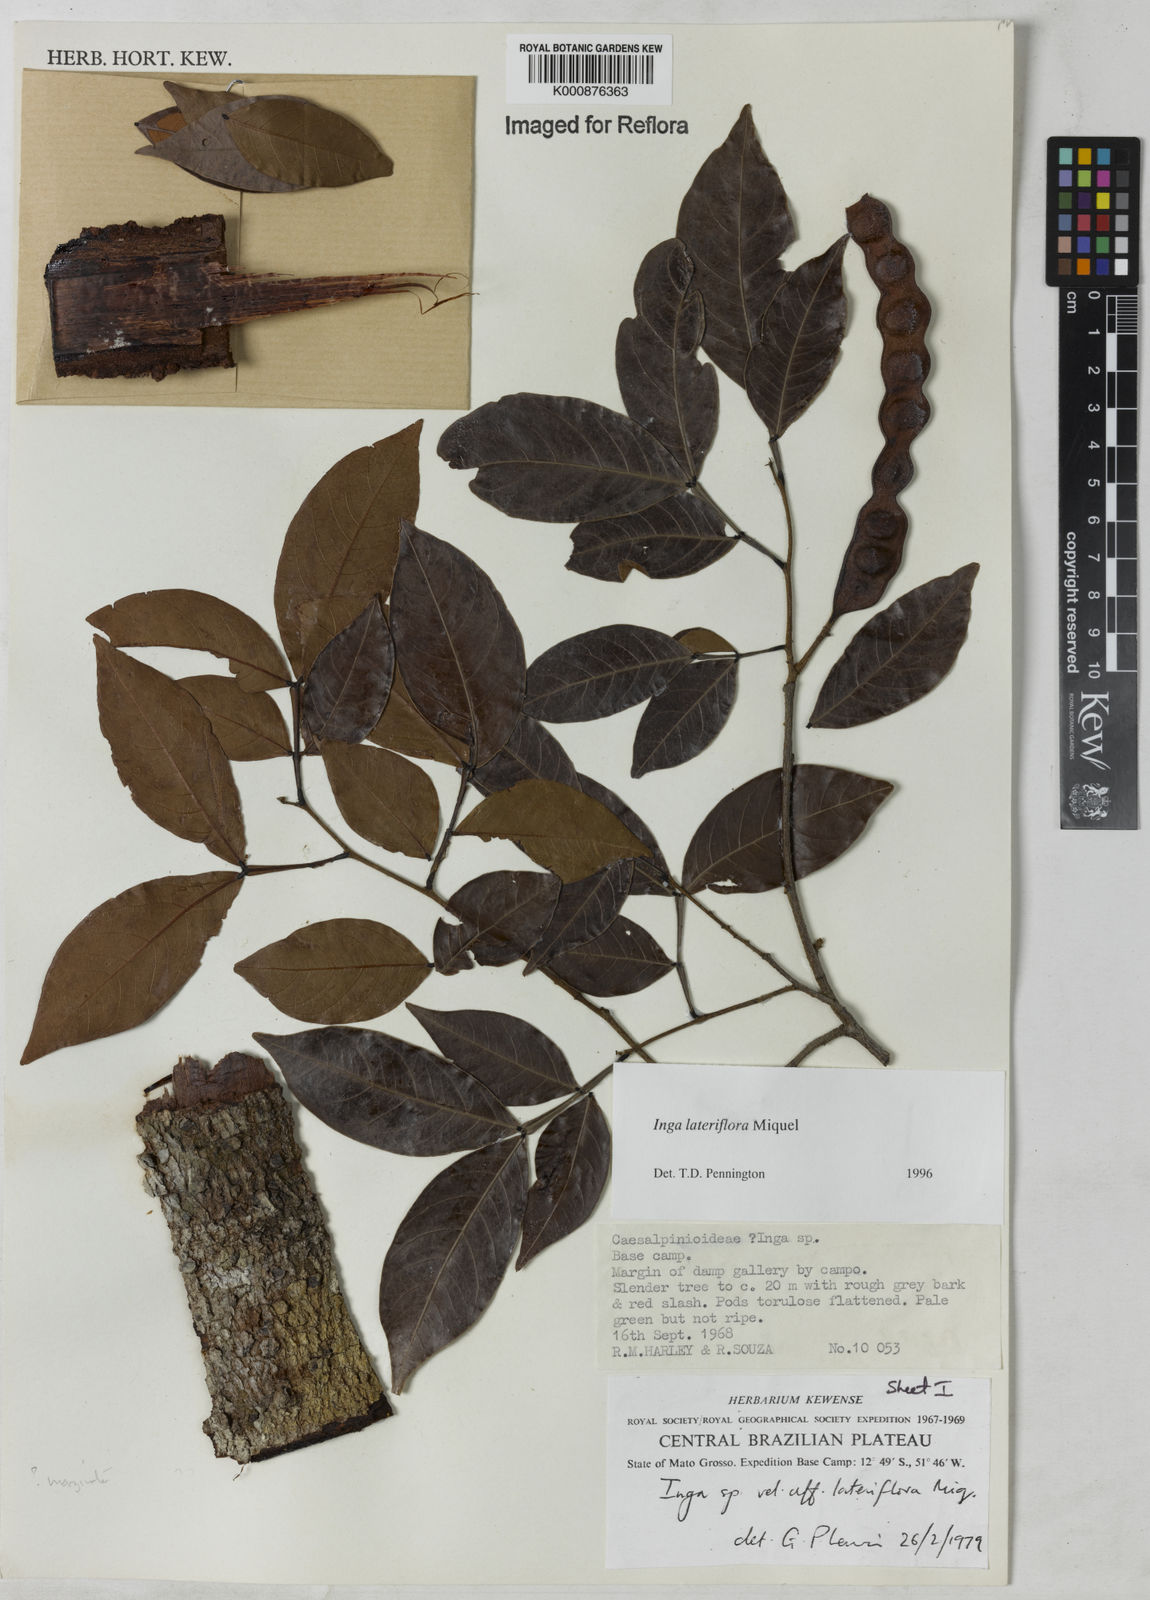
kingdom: Plantae
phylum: Tracheophyta
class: Magnoliopsida
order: Fabales
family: Fabaceae
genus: Inga
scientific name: Inga lateriflora
